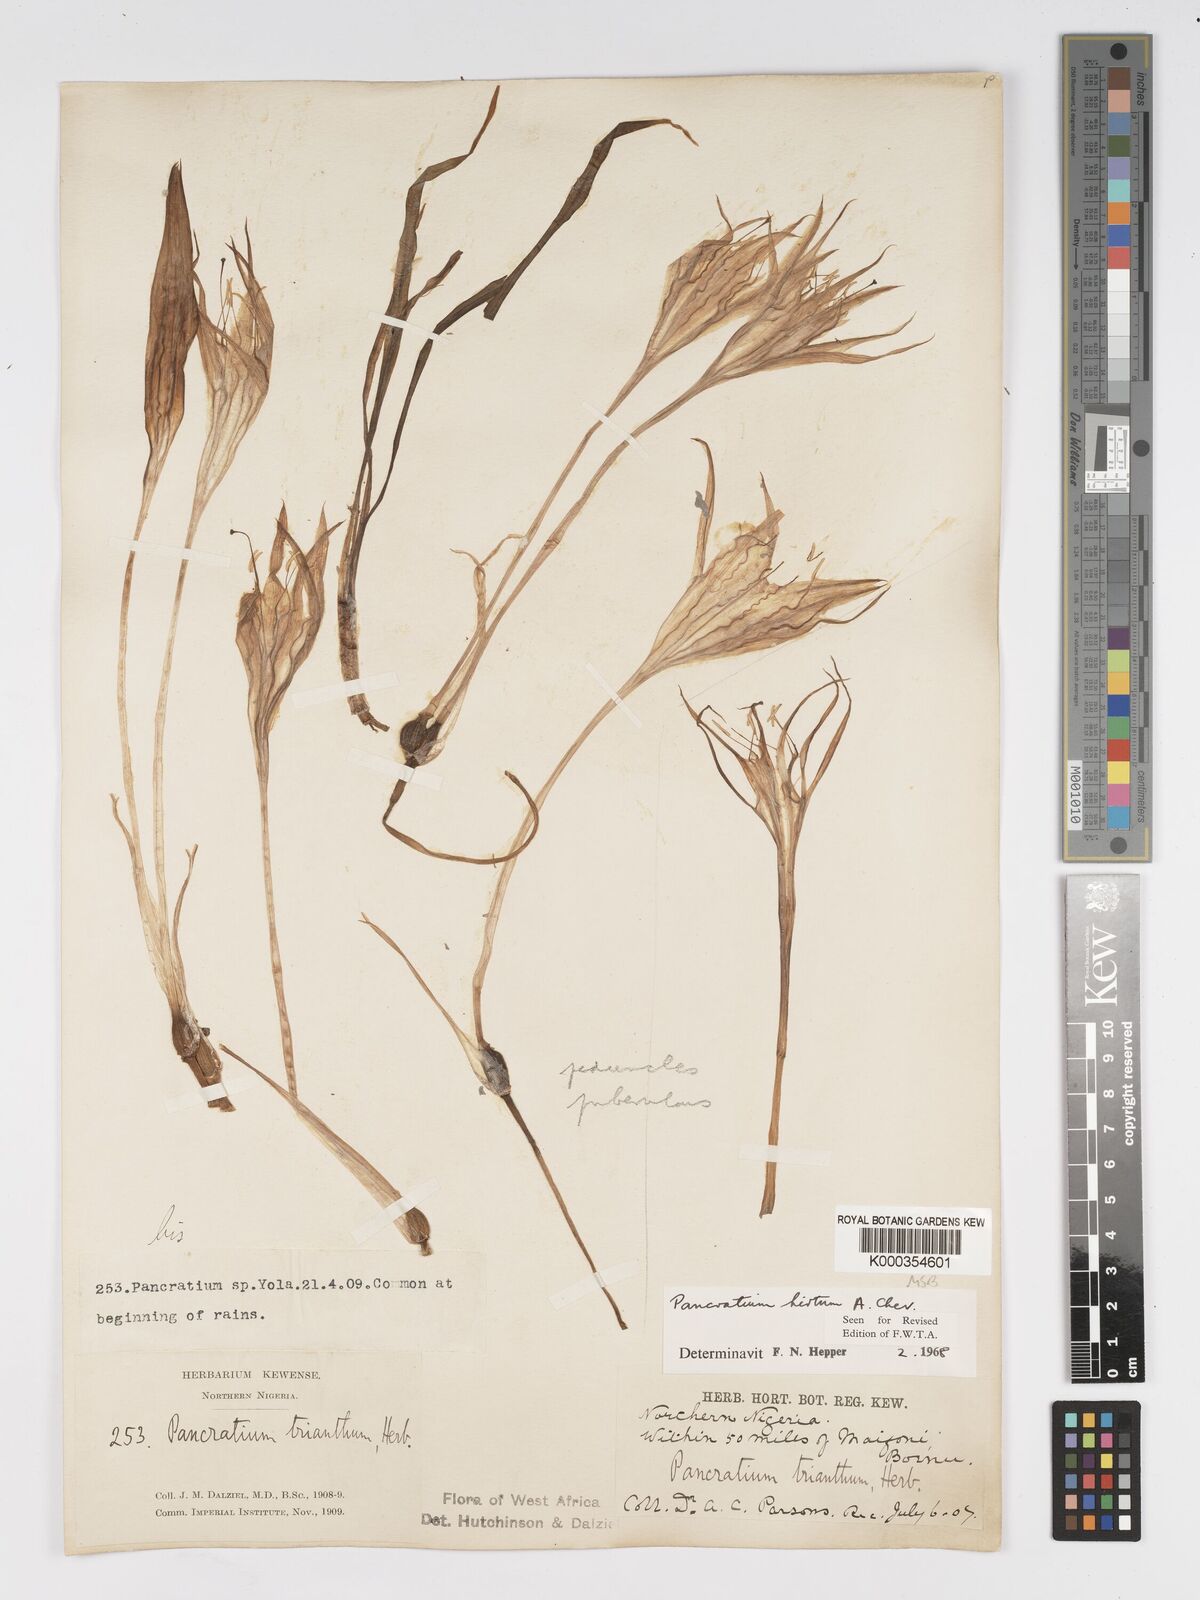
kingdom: Plantae
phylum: Tracheophyta
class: Liliopsida
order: Asparagales
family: Amaryllidaceae
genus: Pancratium
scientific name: Pancratium tenuifolium
